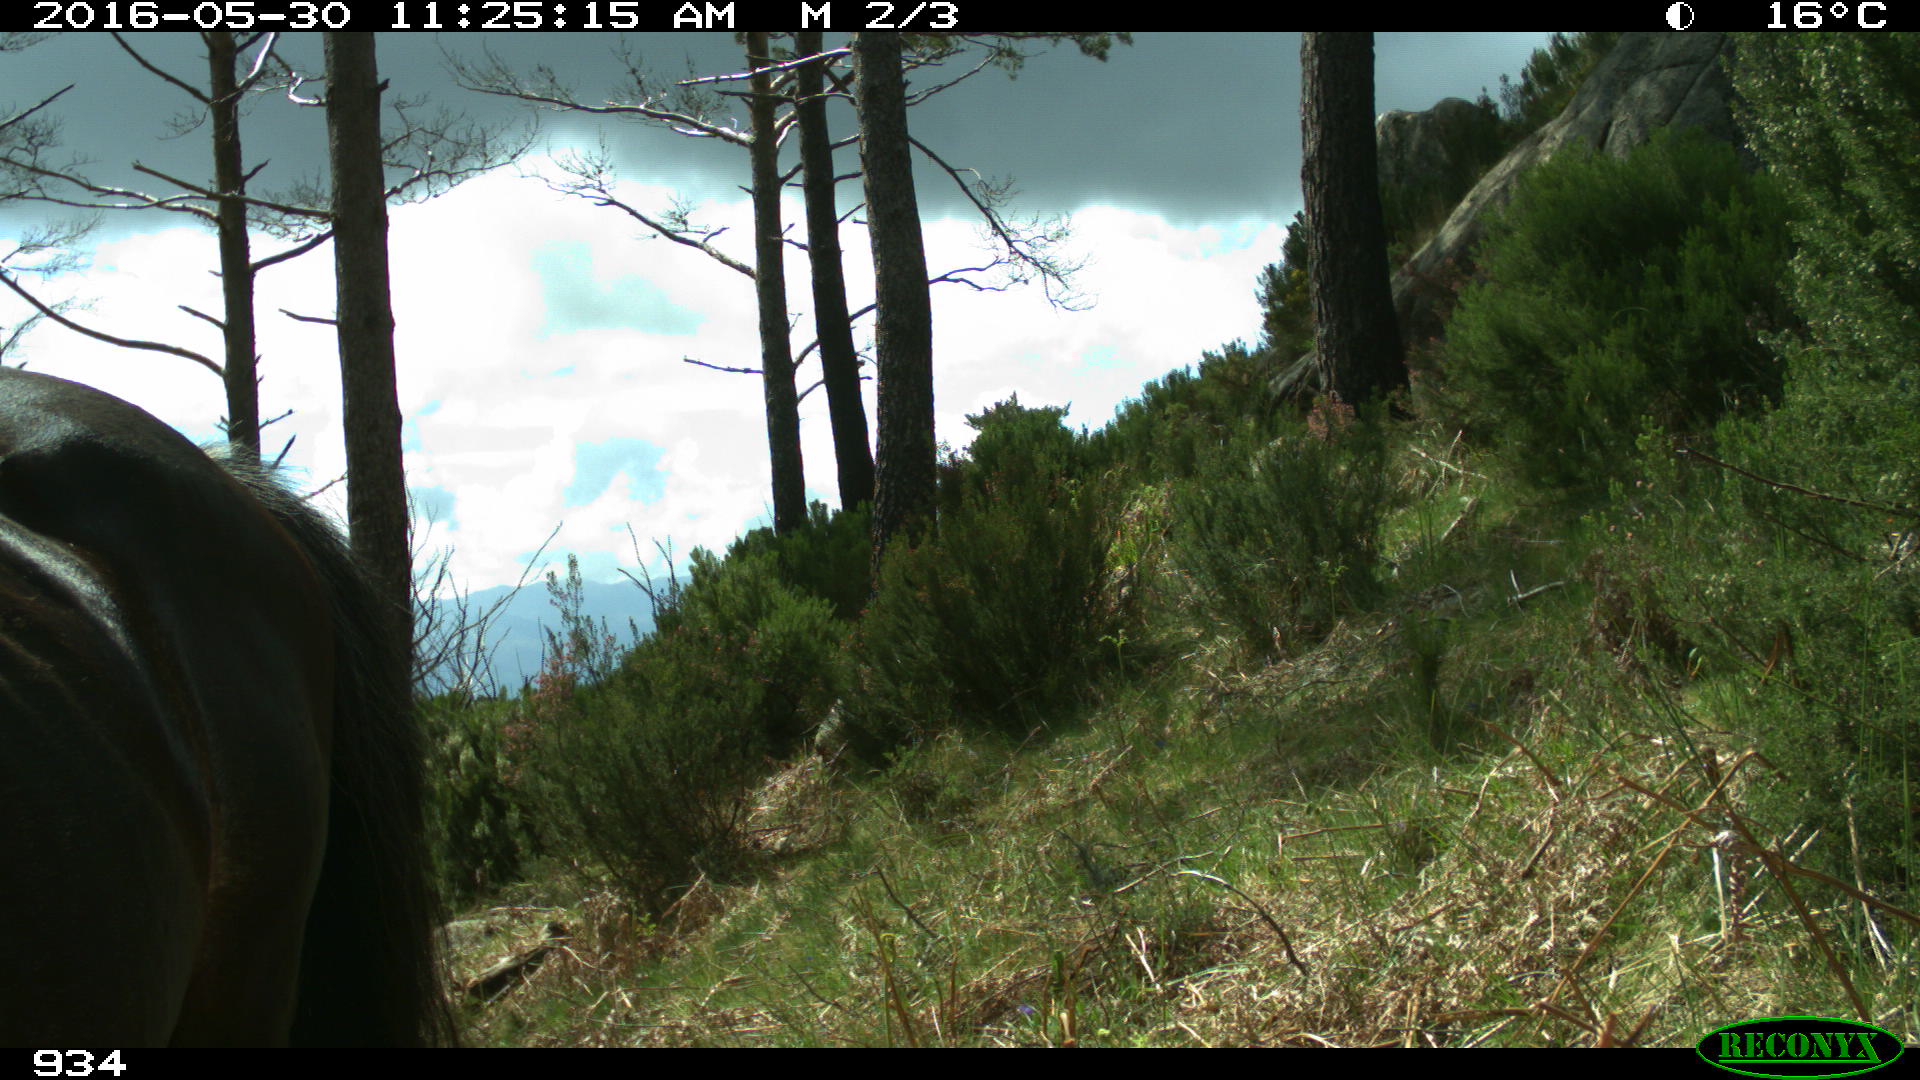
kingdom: Animalia
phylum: Chordata
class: Mammalia
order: Perissodactyla
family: Equidae
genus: Equus
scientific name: Equus caballus
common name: Horse
